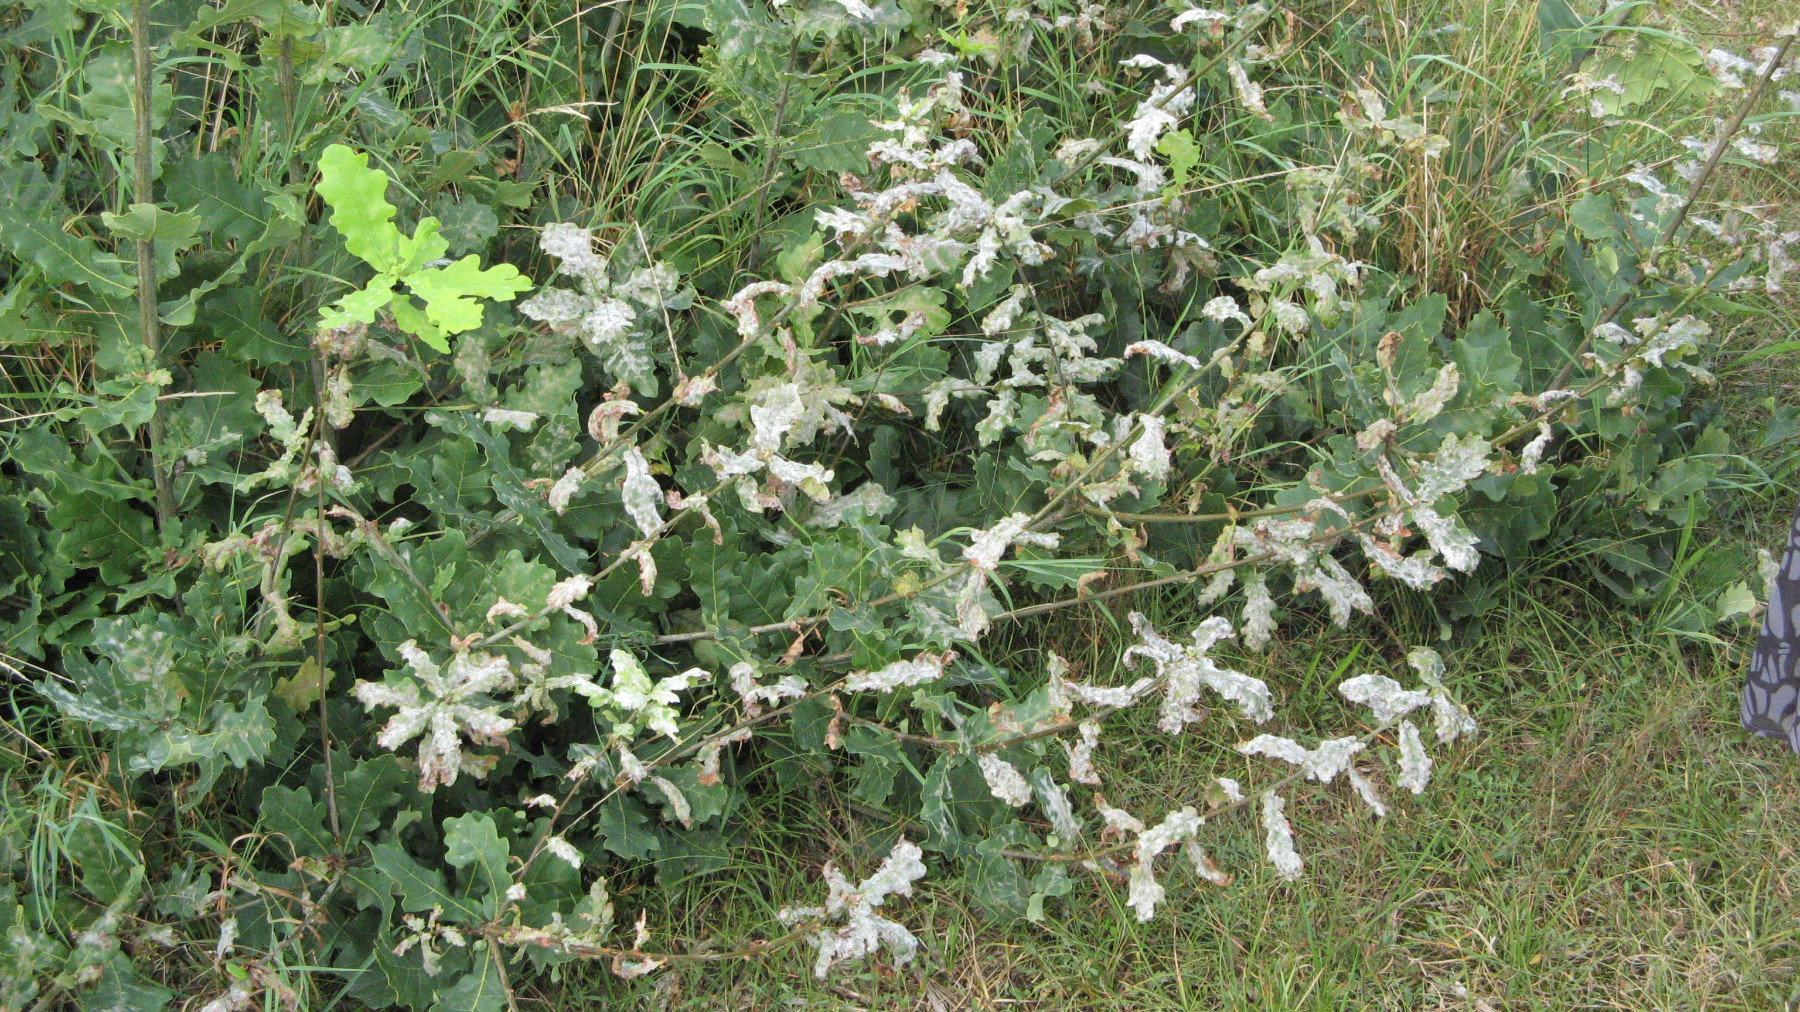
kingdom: Fungi
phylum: Ascomycota
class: Leotiomycetes
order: Helotiales
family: Erysiphaceae
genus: Erysiphe
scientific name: Erysiphe alphitoides
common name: ege-meldug
